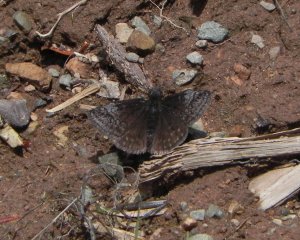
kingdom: Animalia
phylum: Arthropoda
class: Insecta
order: Lepidoptera
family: Hesperiidae
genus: Erynnis
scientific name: Erynnis icelus
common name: Dreamy Duskywing
